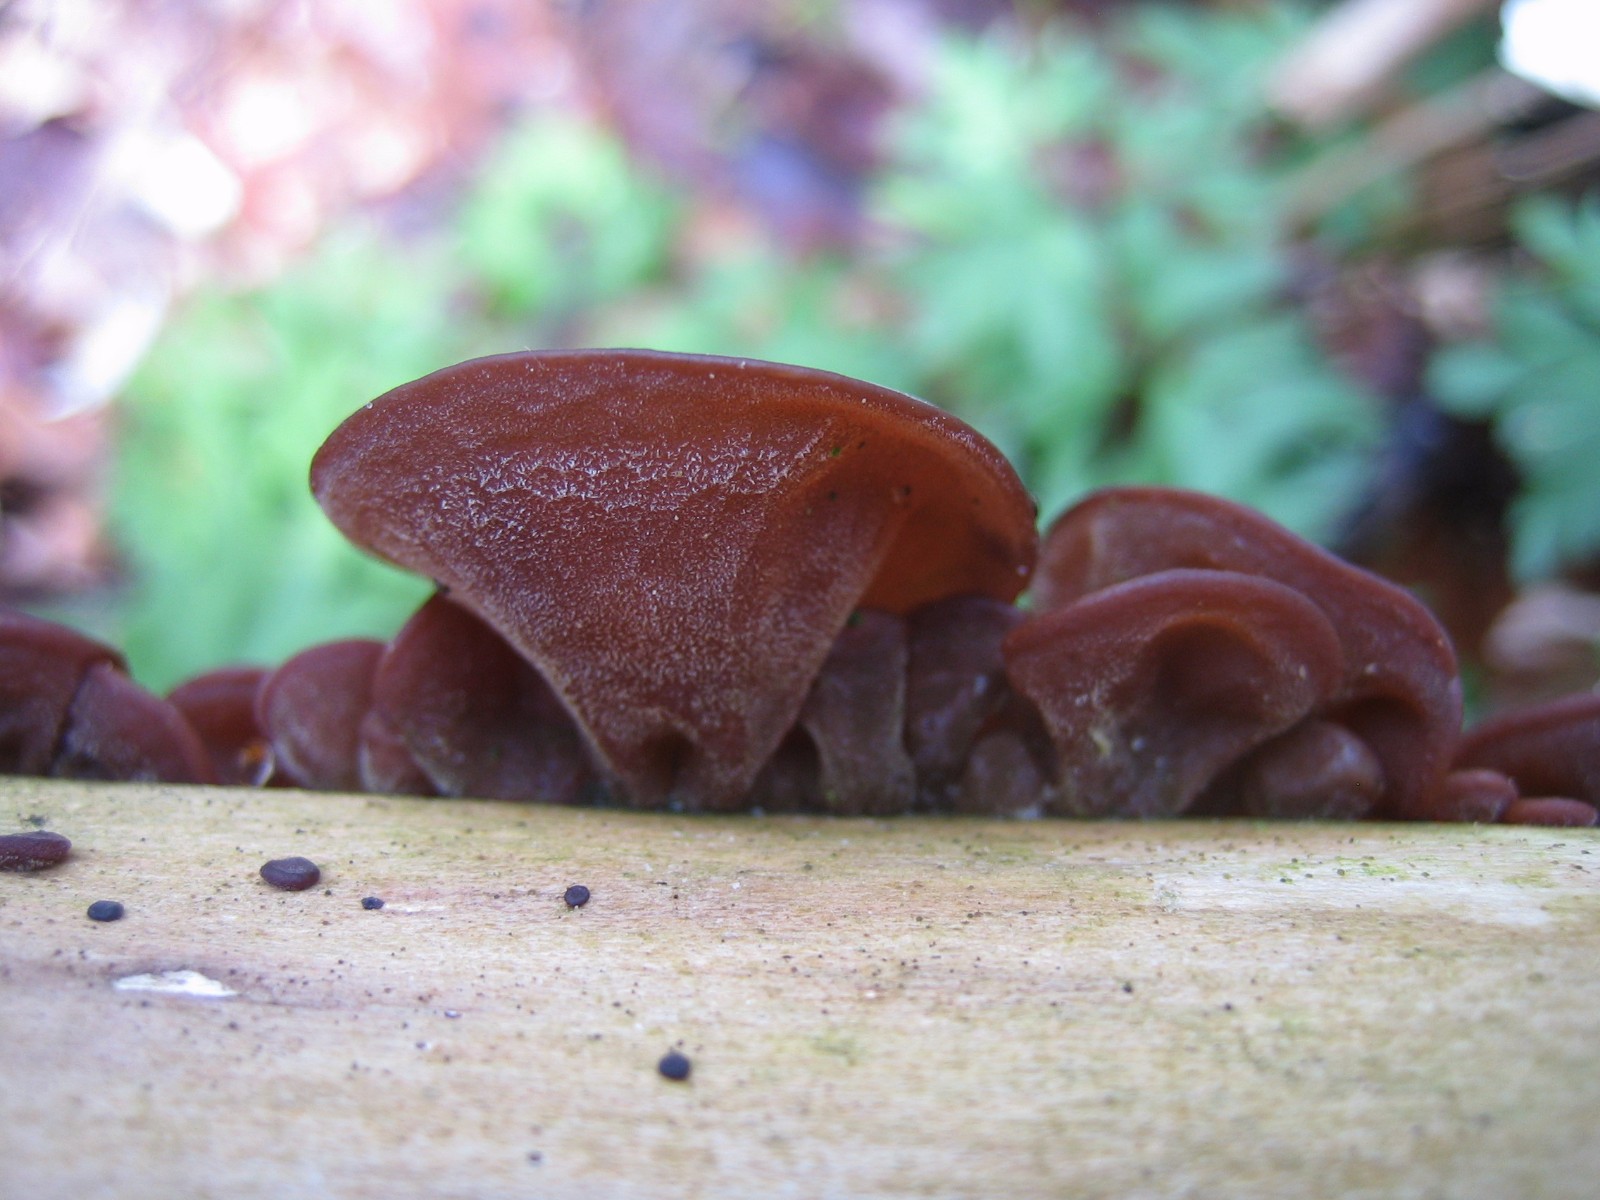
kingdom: Fungi
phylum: Basidiomycota
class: Agaricomycetes
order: Auriculariales
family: Auriculariaceae
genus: Auricularia
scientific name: Auricularia auricula-judae
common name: almindelig judasøre
